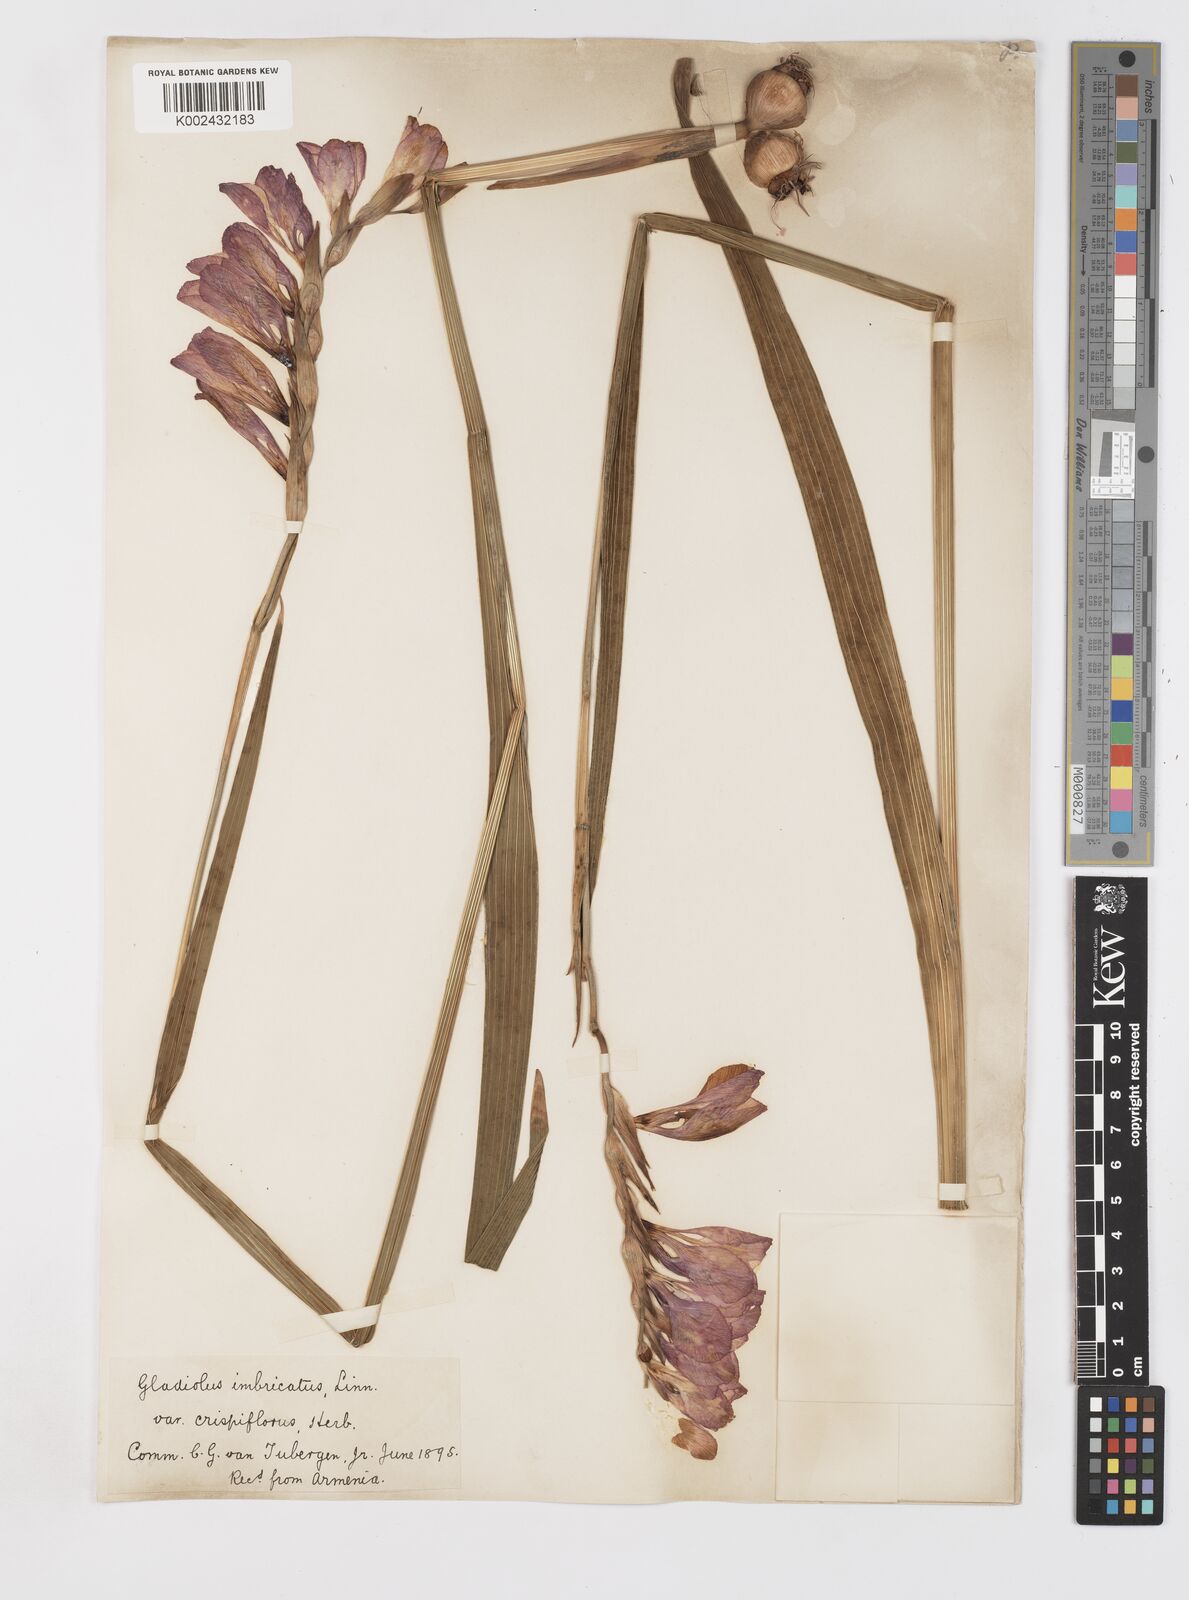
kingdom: Plantae
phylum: Tracheophyta
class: Liliopsida
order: Asparagales
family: Iridaceae
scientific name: Iridaceae
